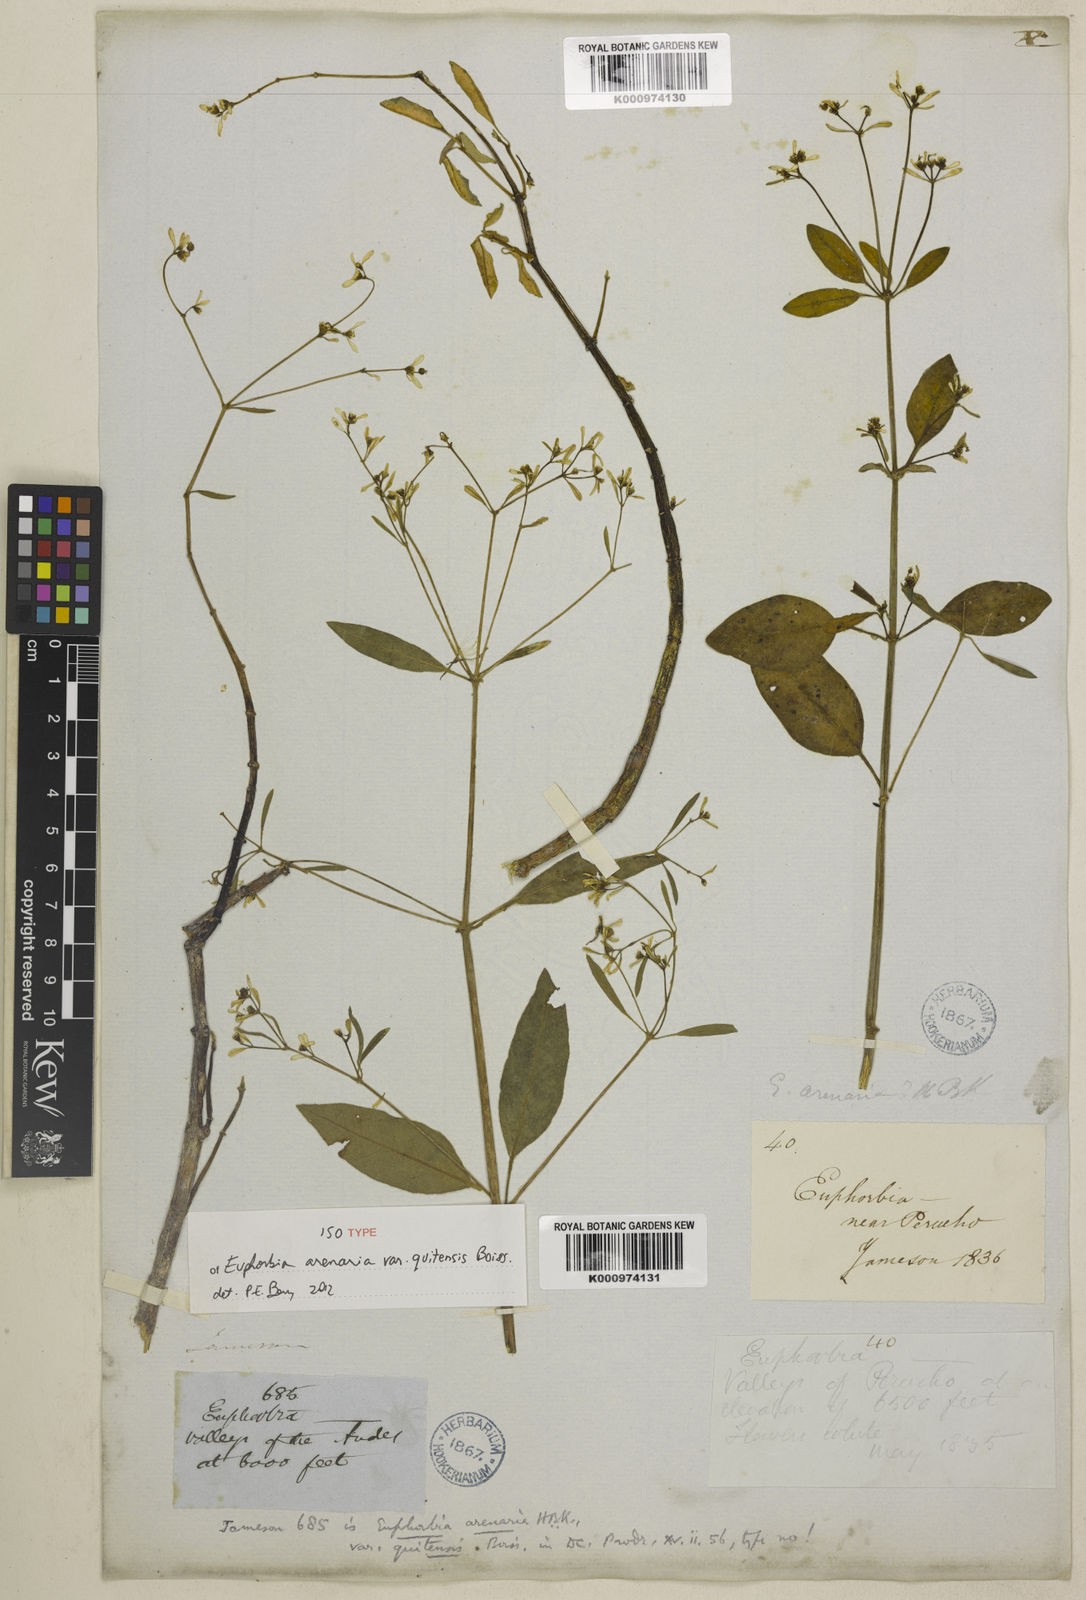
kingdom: Plantae
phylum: Tracheophyta
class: Magnoliopsida
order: Malpighiales
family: Euphorbiaceae
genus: Euphorbia
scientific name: Euphorbia arenaria
